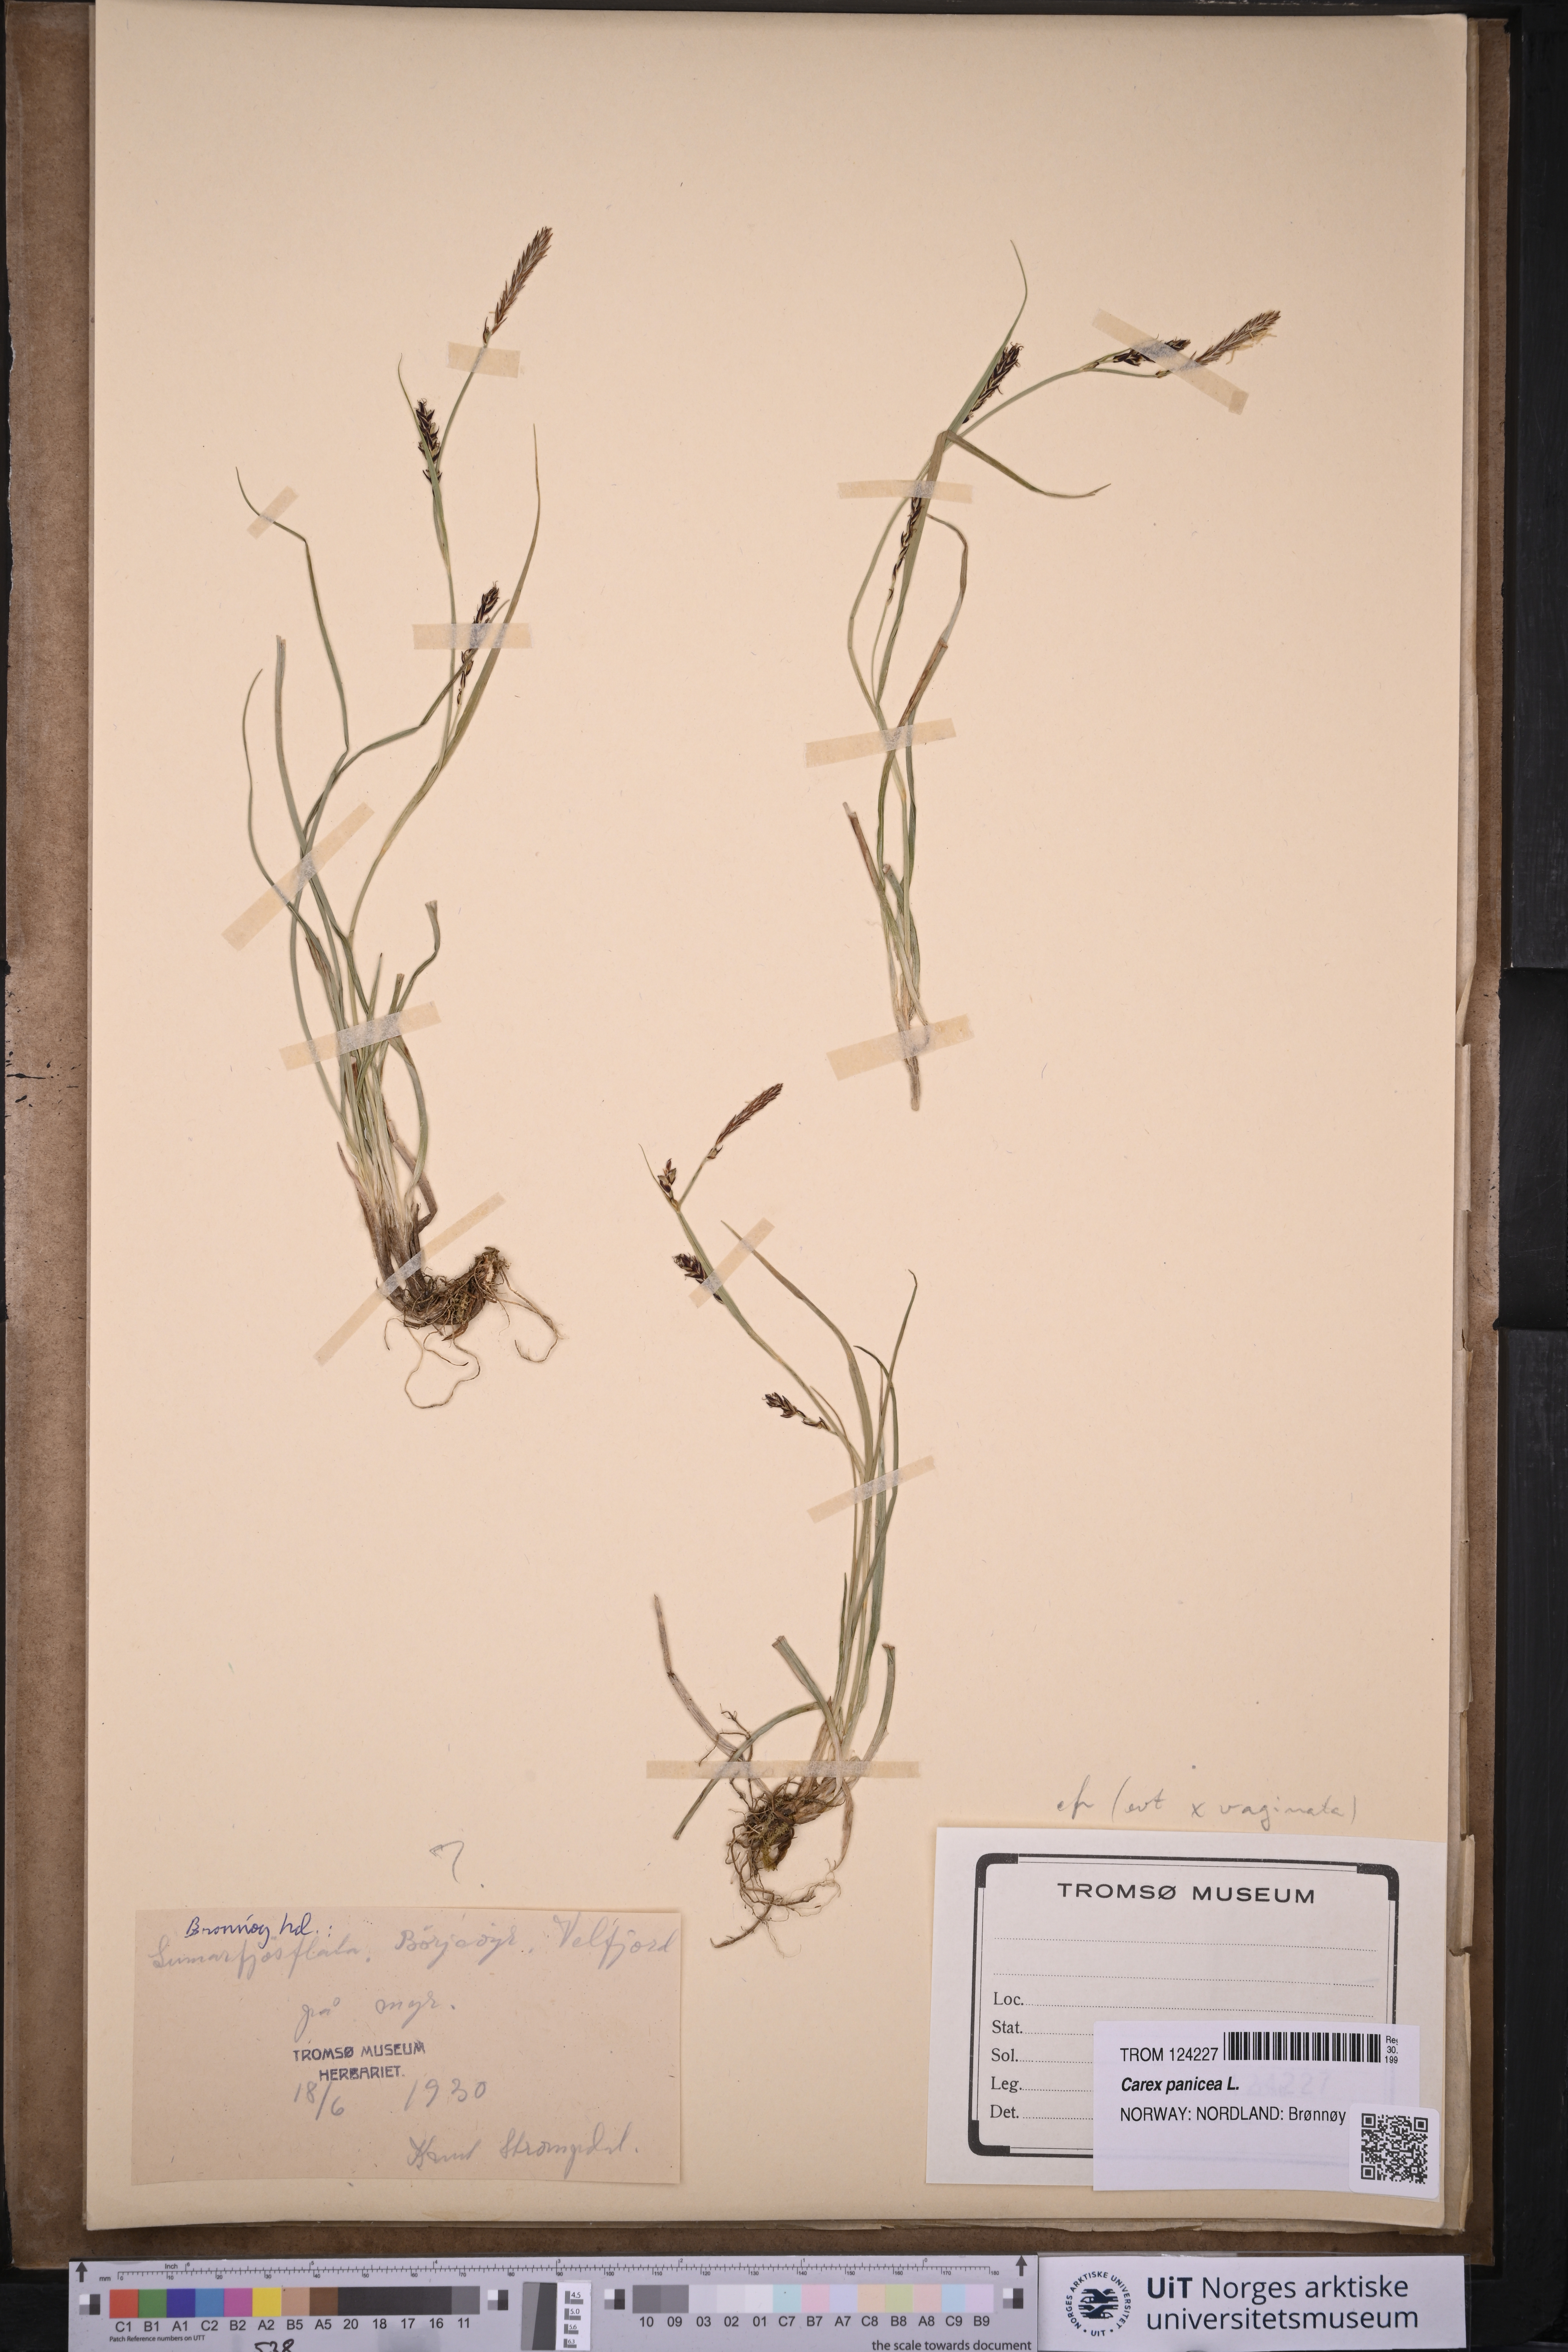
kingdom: Plantae
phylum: Tracheophyta
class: Liliopsida
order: Poales
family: Cyperaceae
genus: Carex
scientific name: Carex panicea
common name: Carnation sedge
